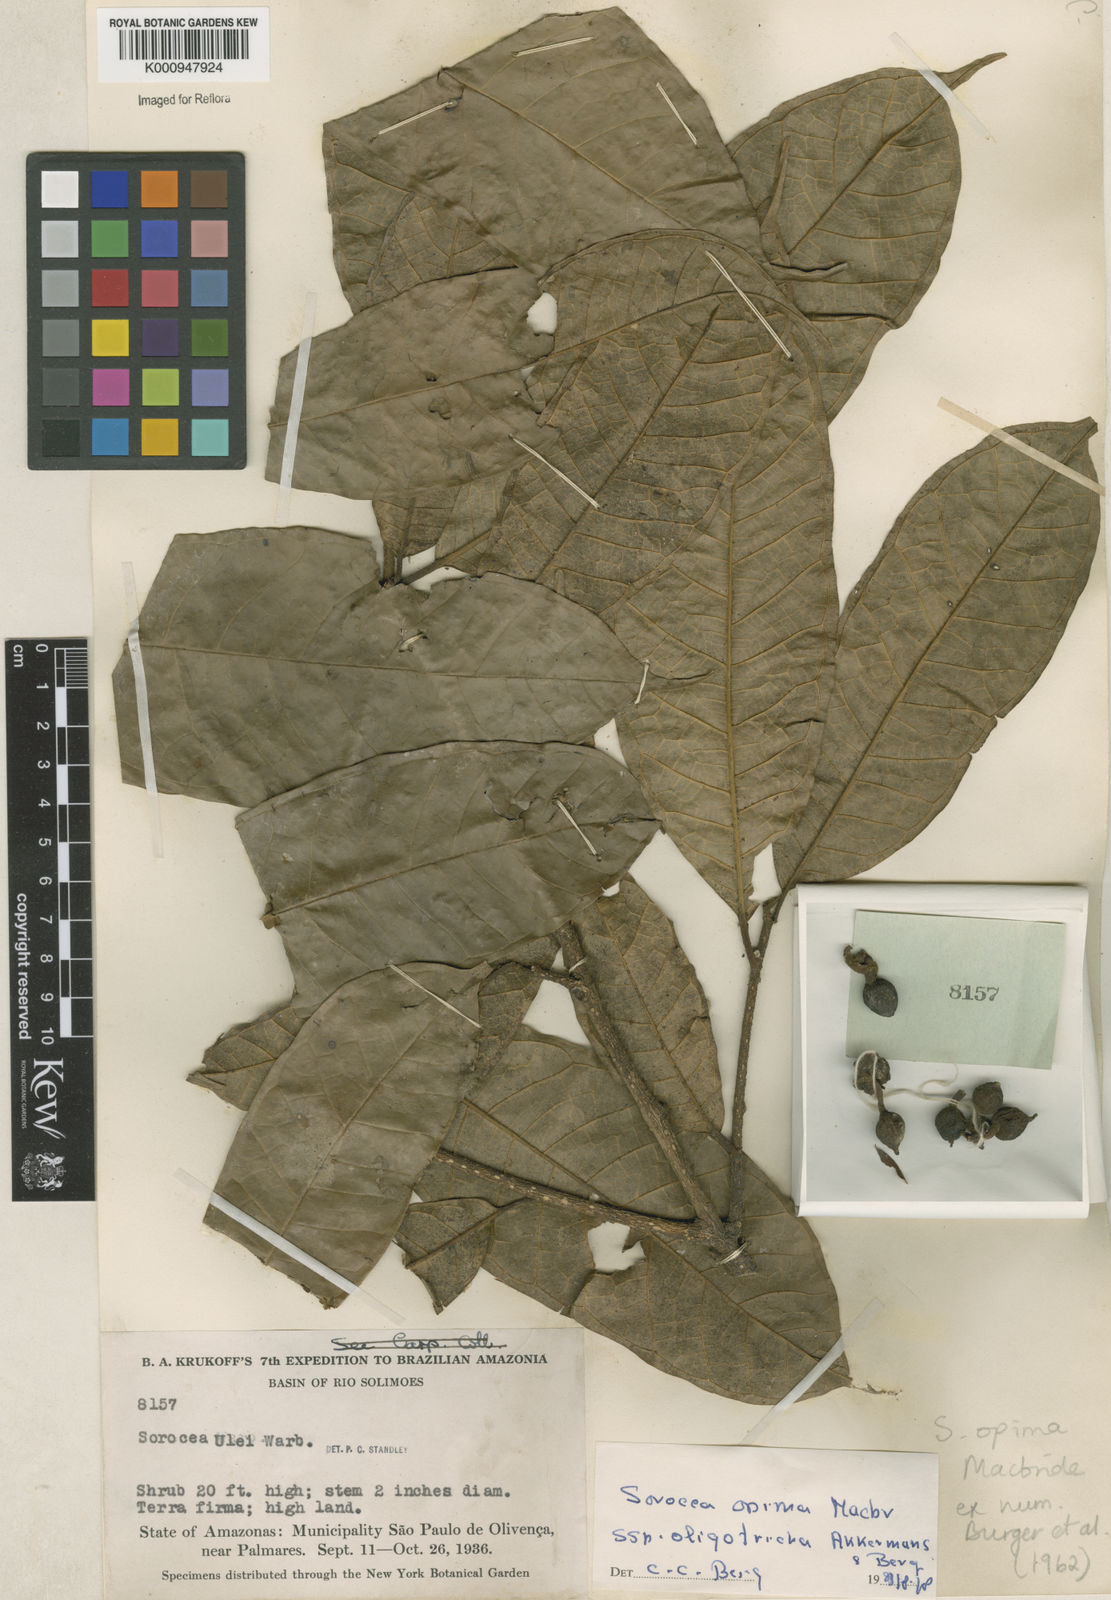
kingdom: Plantae
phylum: Tracheophyta
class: Magnoliopsida
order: Rosales
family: Moraceae
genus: Sorocea
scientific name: Sorocea pubivena
